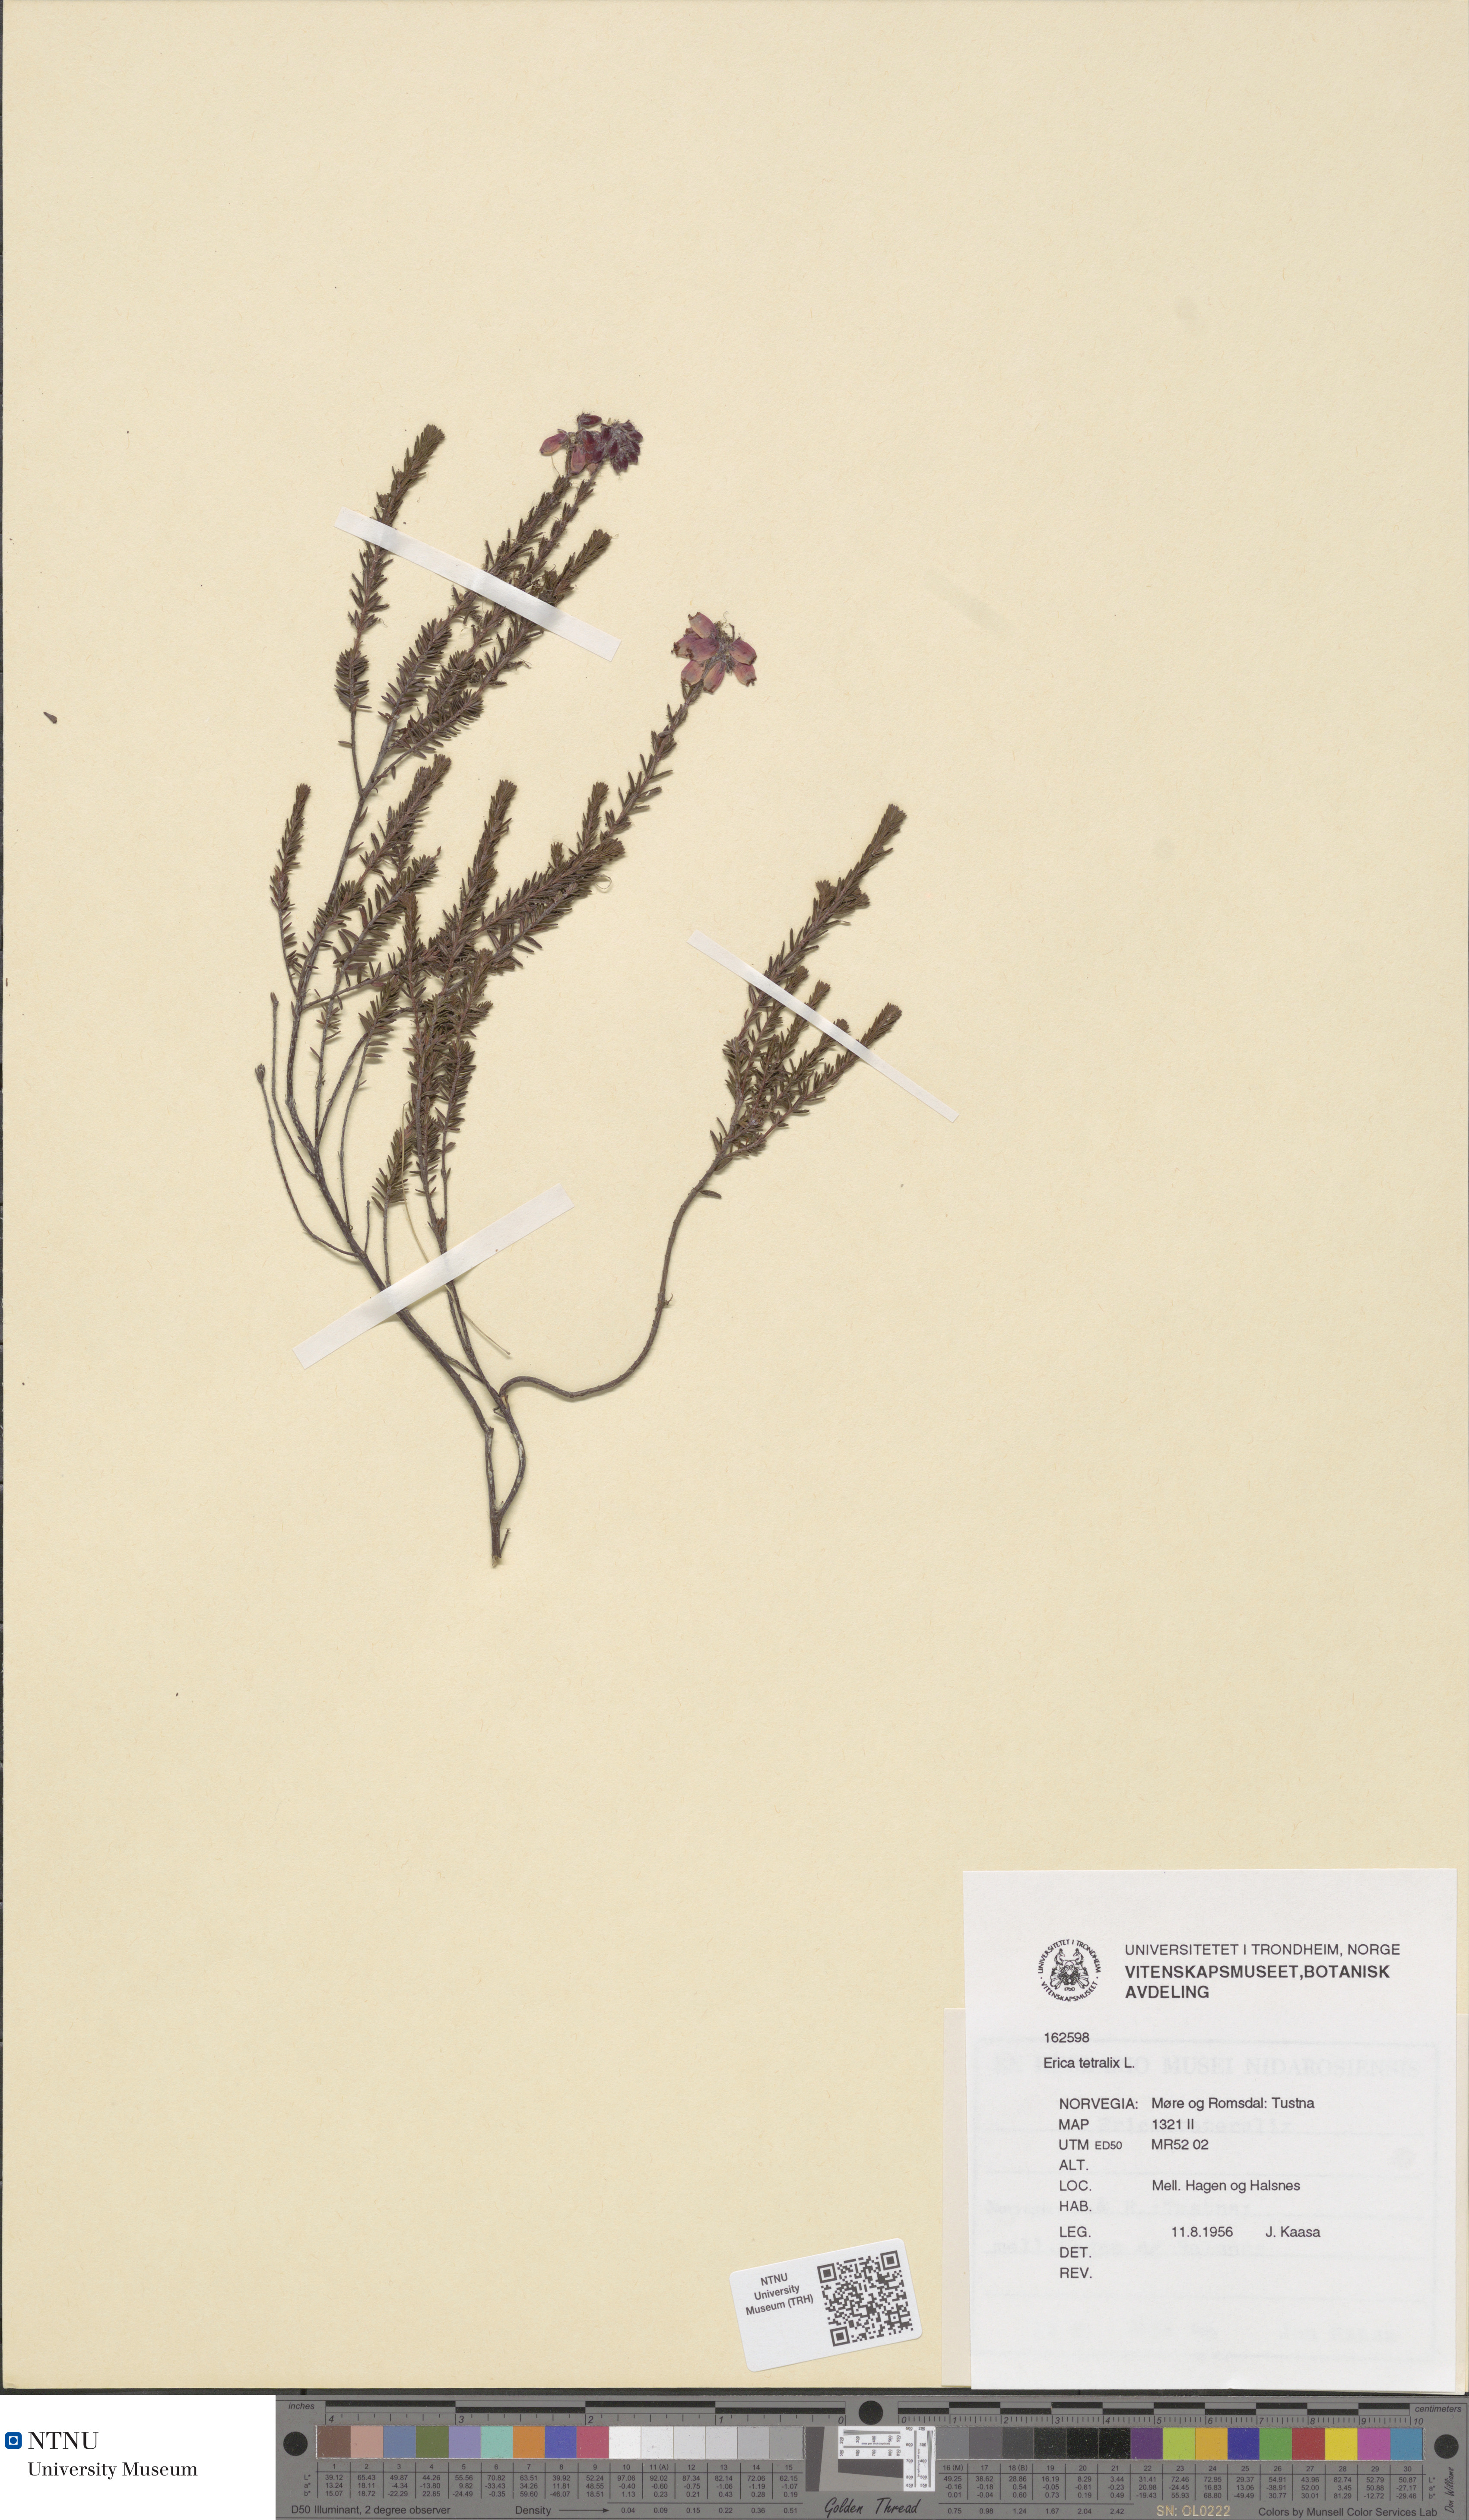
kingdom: Plantae
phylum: Tracheophyta
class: Magnoliopsida
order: Ericales
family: Ericaceae
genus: Erica
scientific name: Erica tetralix
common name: Cross-leaved heath
